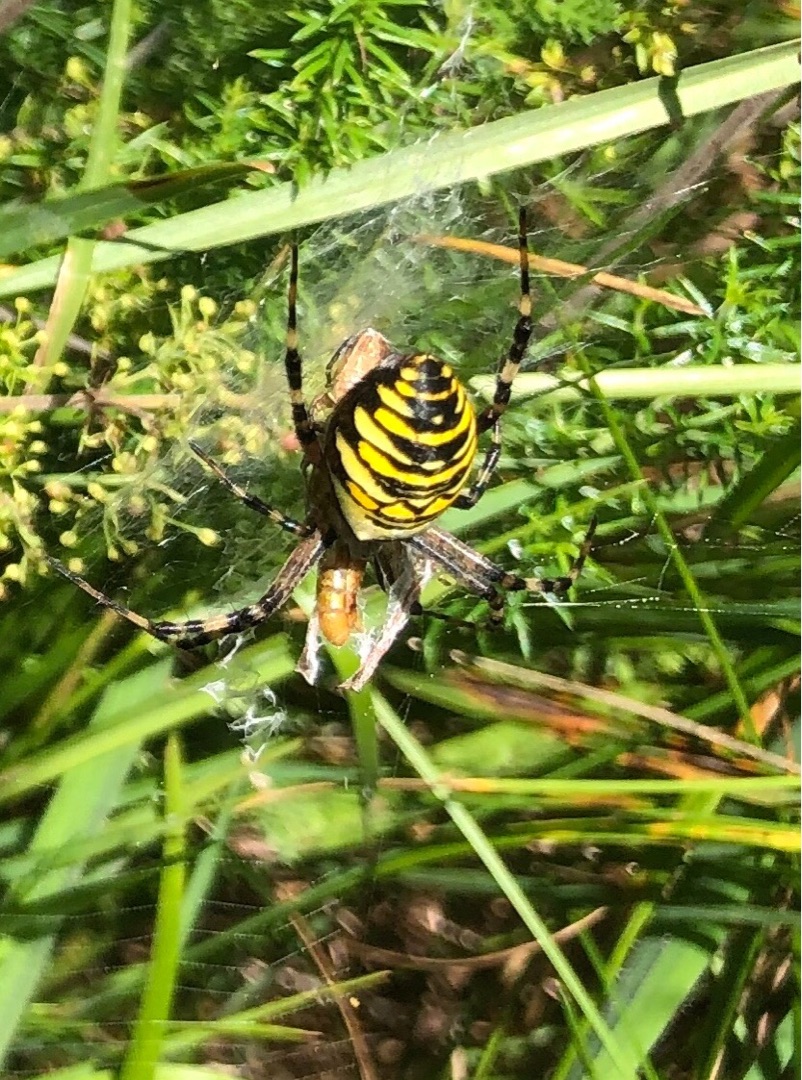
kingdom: Animalia
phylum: Arthropoda
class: Arachnida
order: Araneae
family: Araneidae
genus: Argiope
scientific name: Argiope bruennichi
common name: Hvepseedderkop
